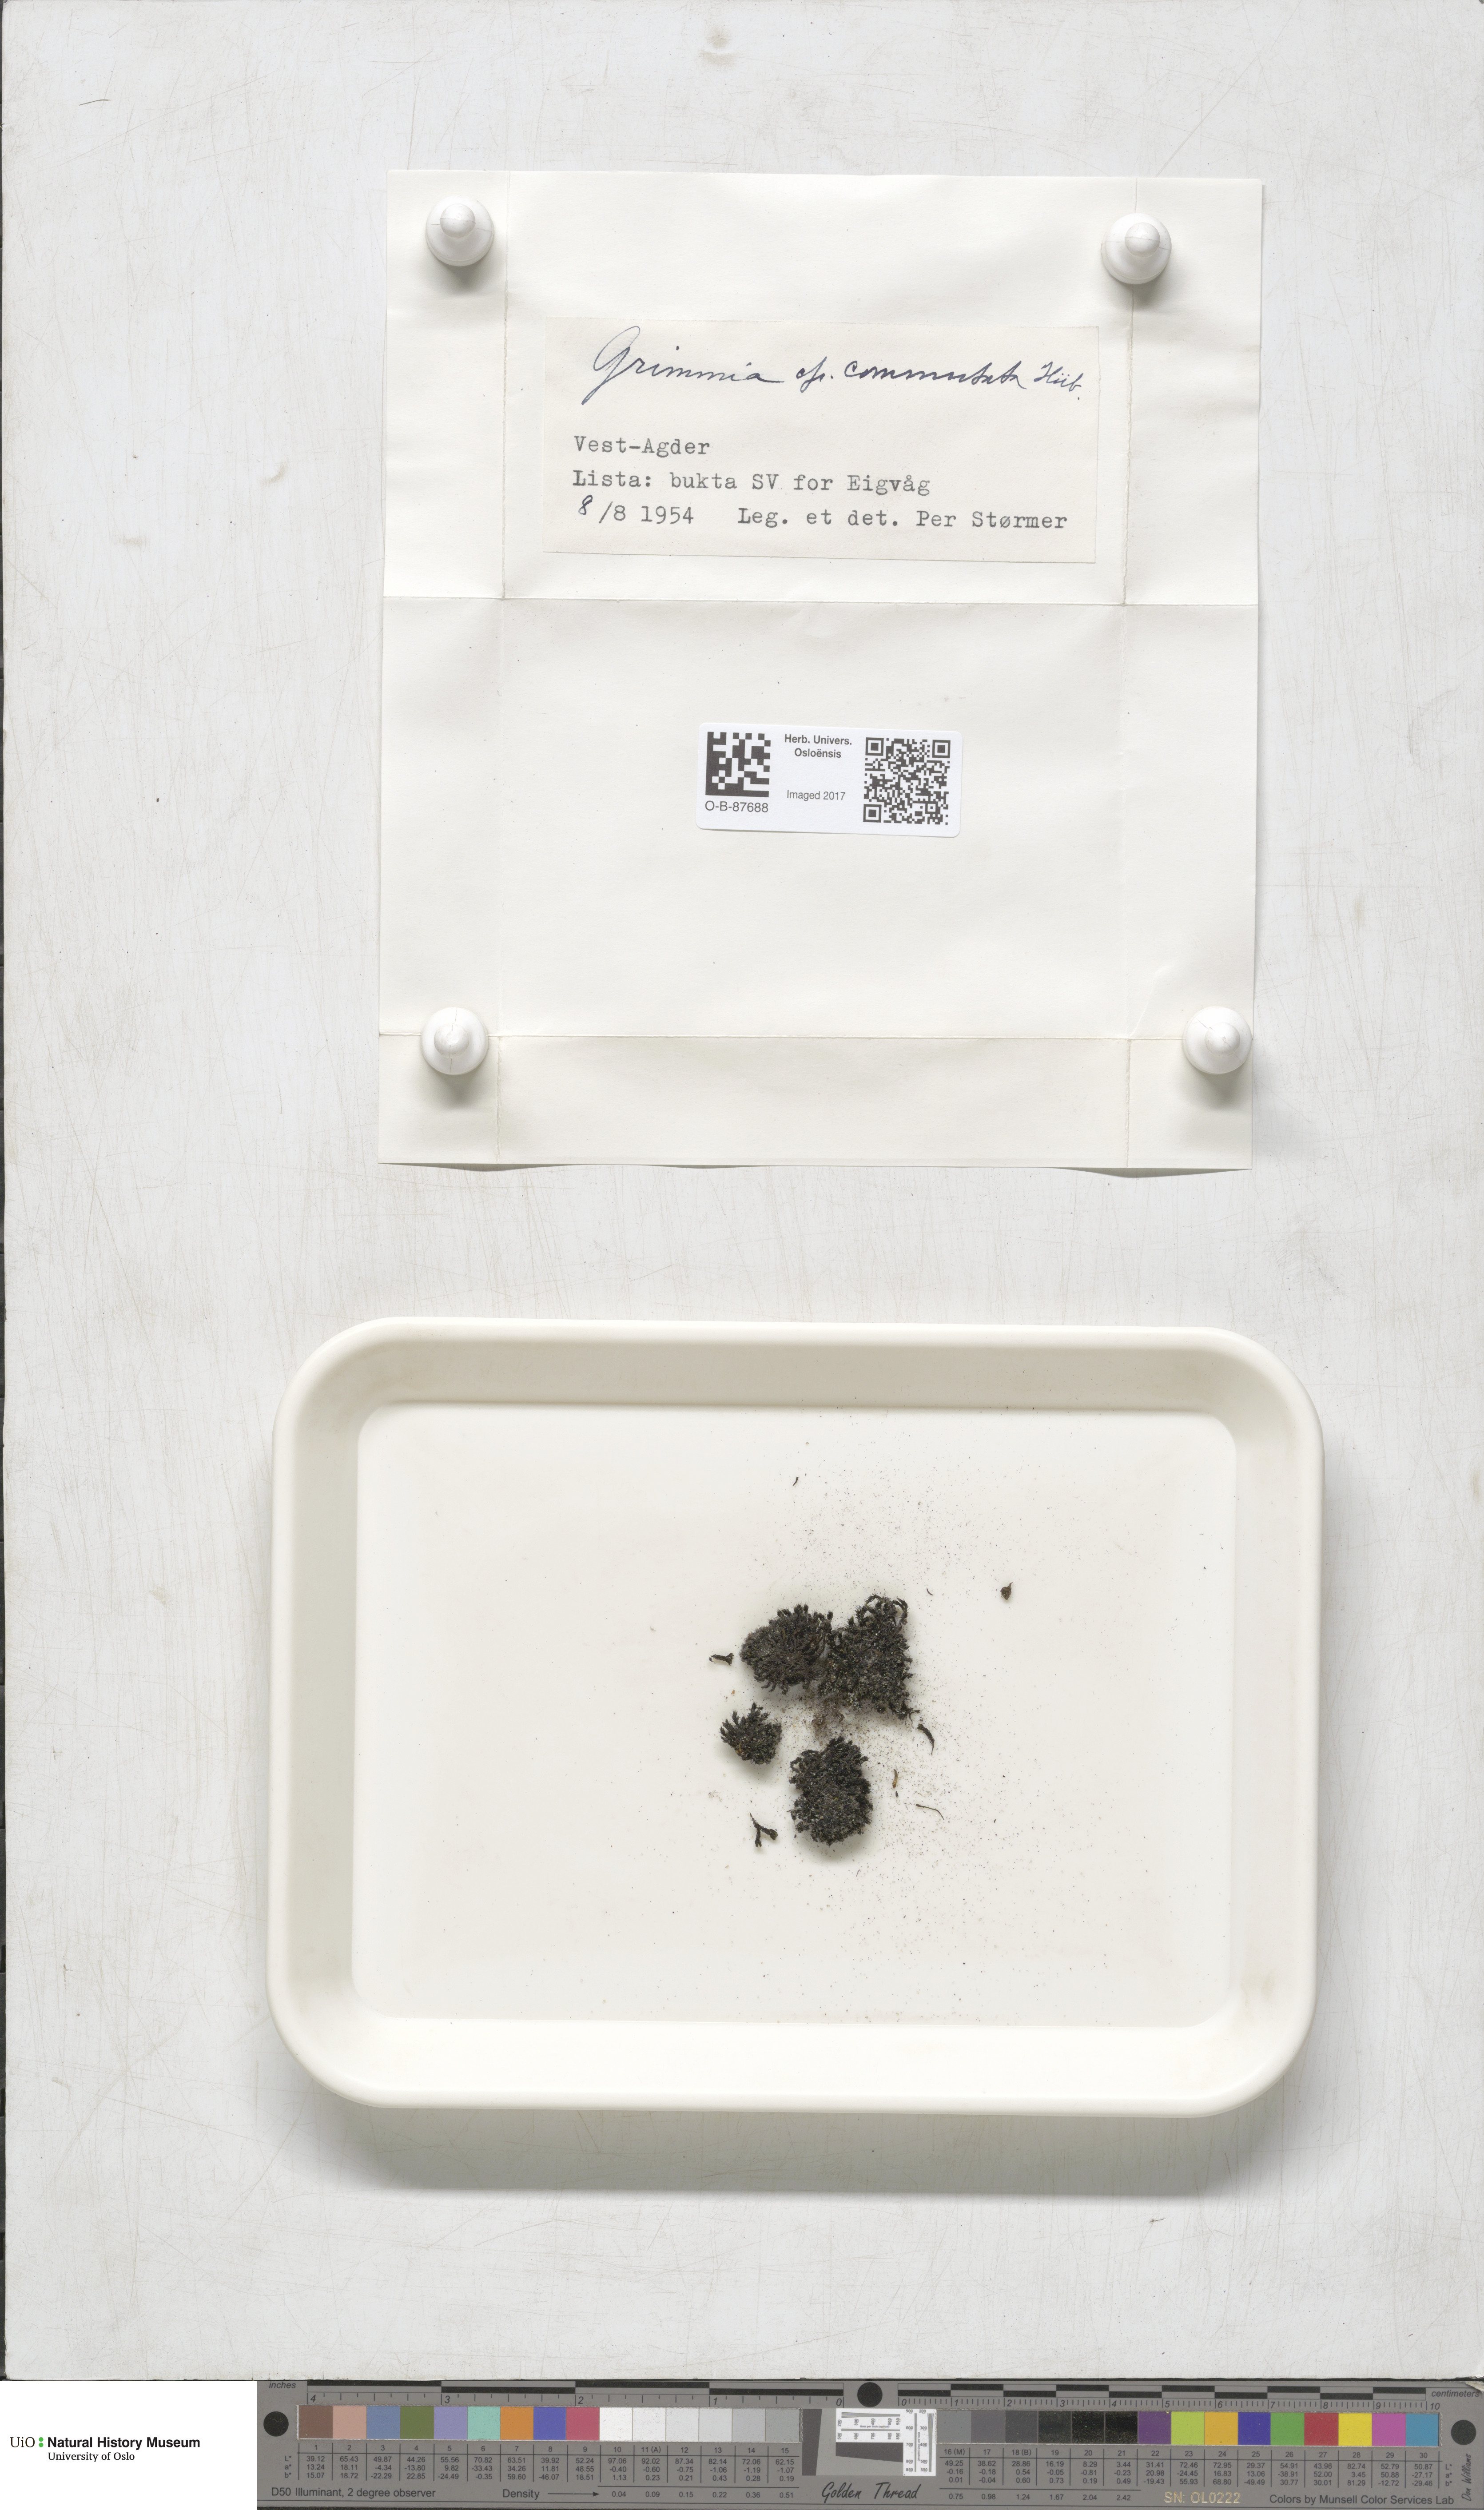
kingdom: Plantae
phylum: Bryophyta
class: Bryopsida
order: Grimmiales
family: Grimmiaceae
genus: Grimmia
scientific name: Grimmia ovalis
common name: Oval grimmia
